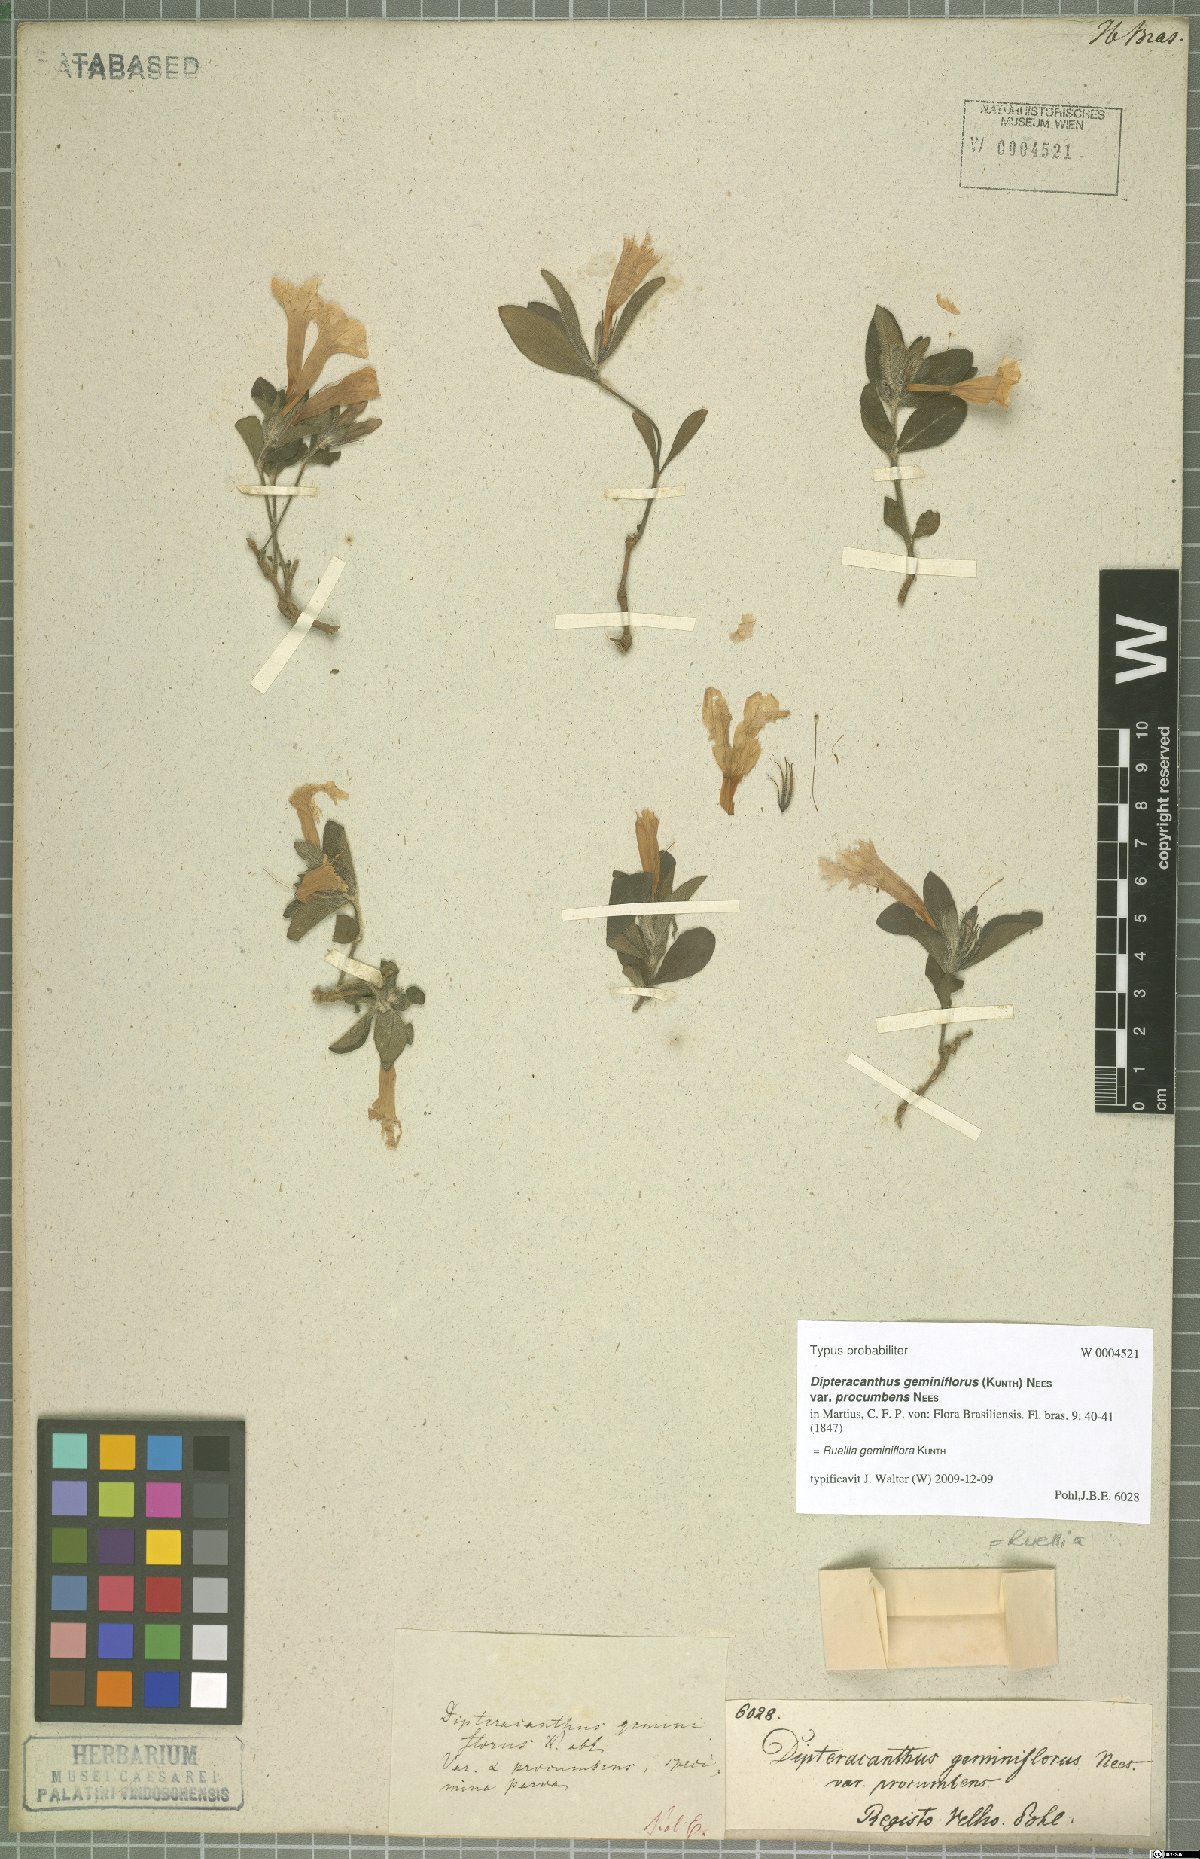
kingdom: Plantae
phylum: Tracheophyta
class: Magnoliopsida
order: Lamiales
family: Acanthaceae
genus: Ruellia
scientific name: Ruellia geminiflora
